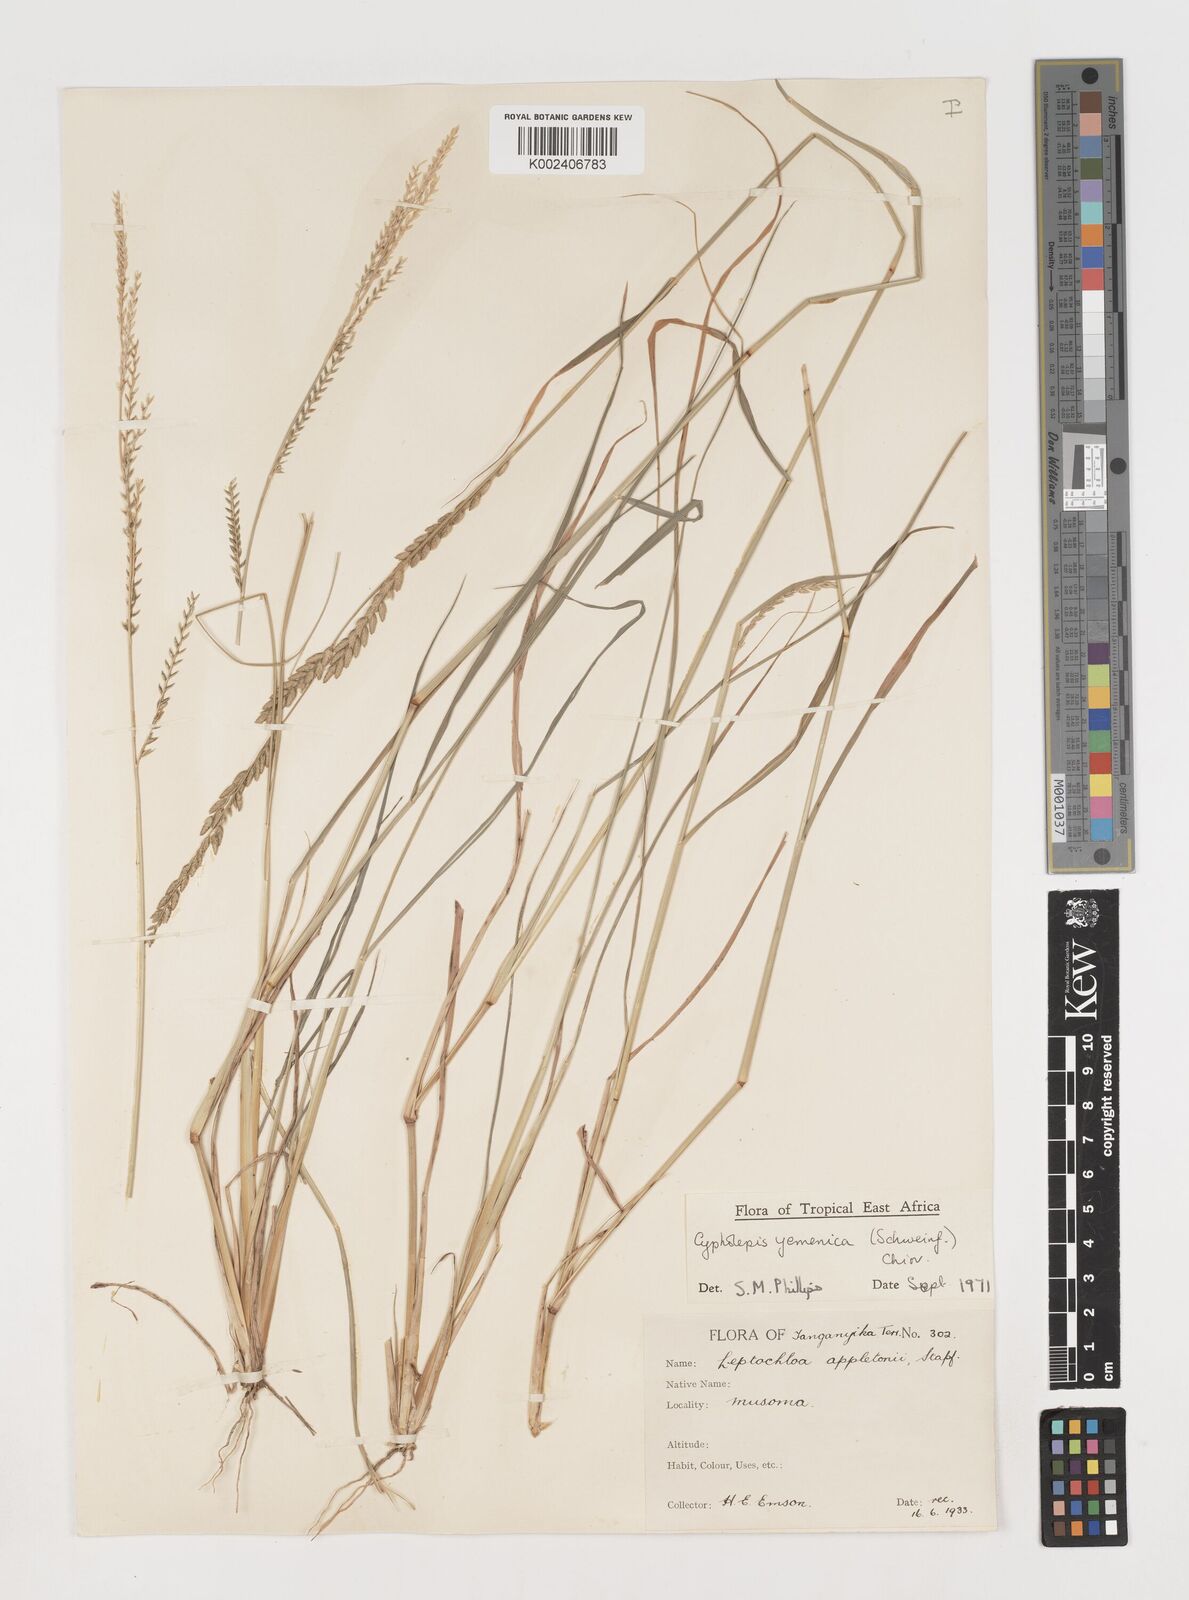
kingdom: Plantae
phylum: Tracheophyta
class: Liliopsida
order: Poales
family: Poaceae
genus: Disakisperma
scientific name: Disakisperma yemenicum
